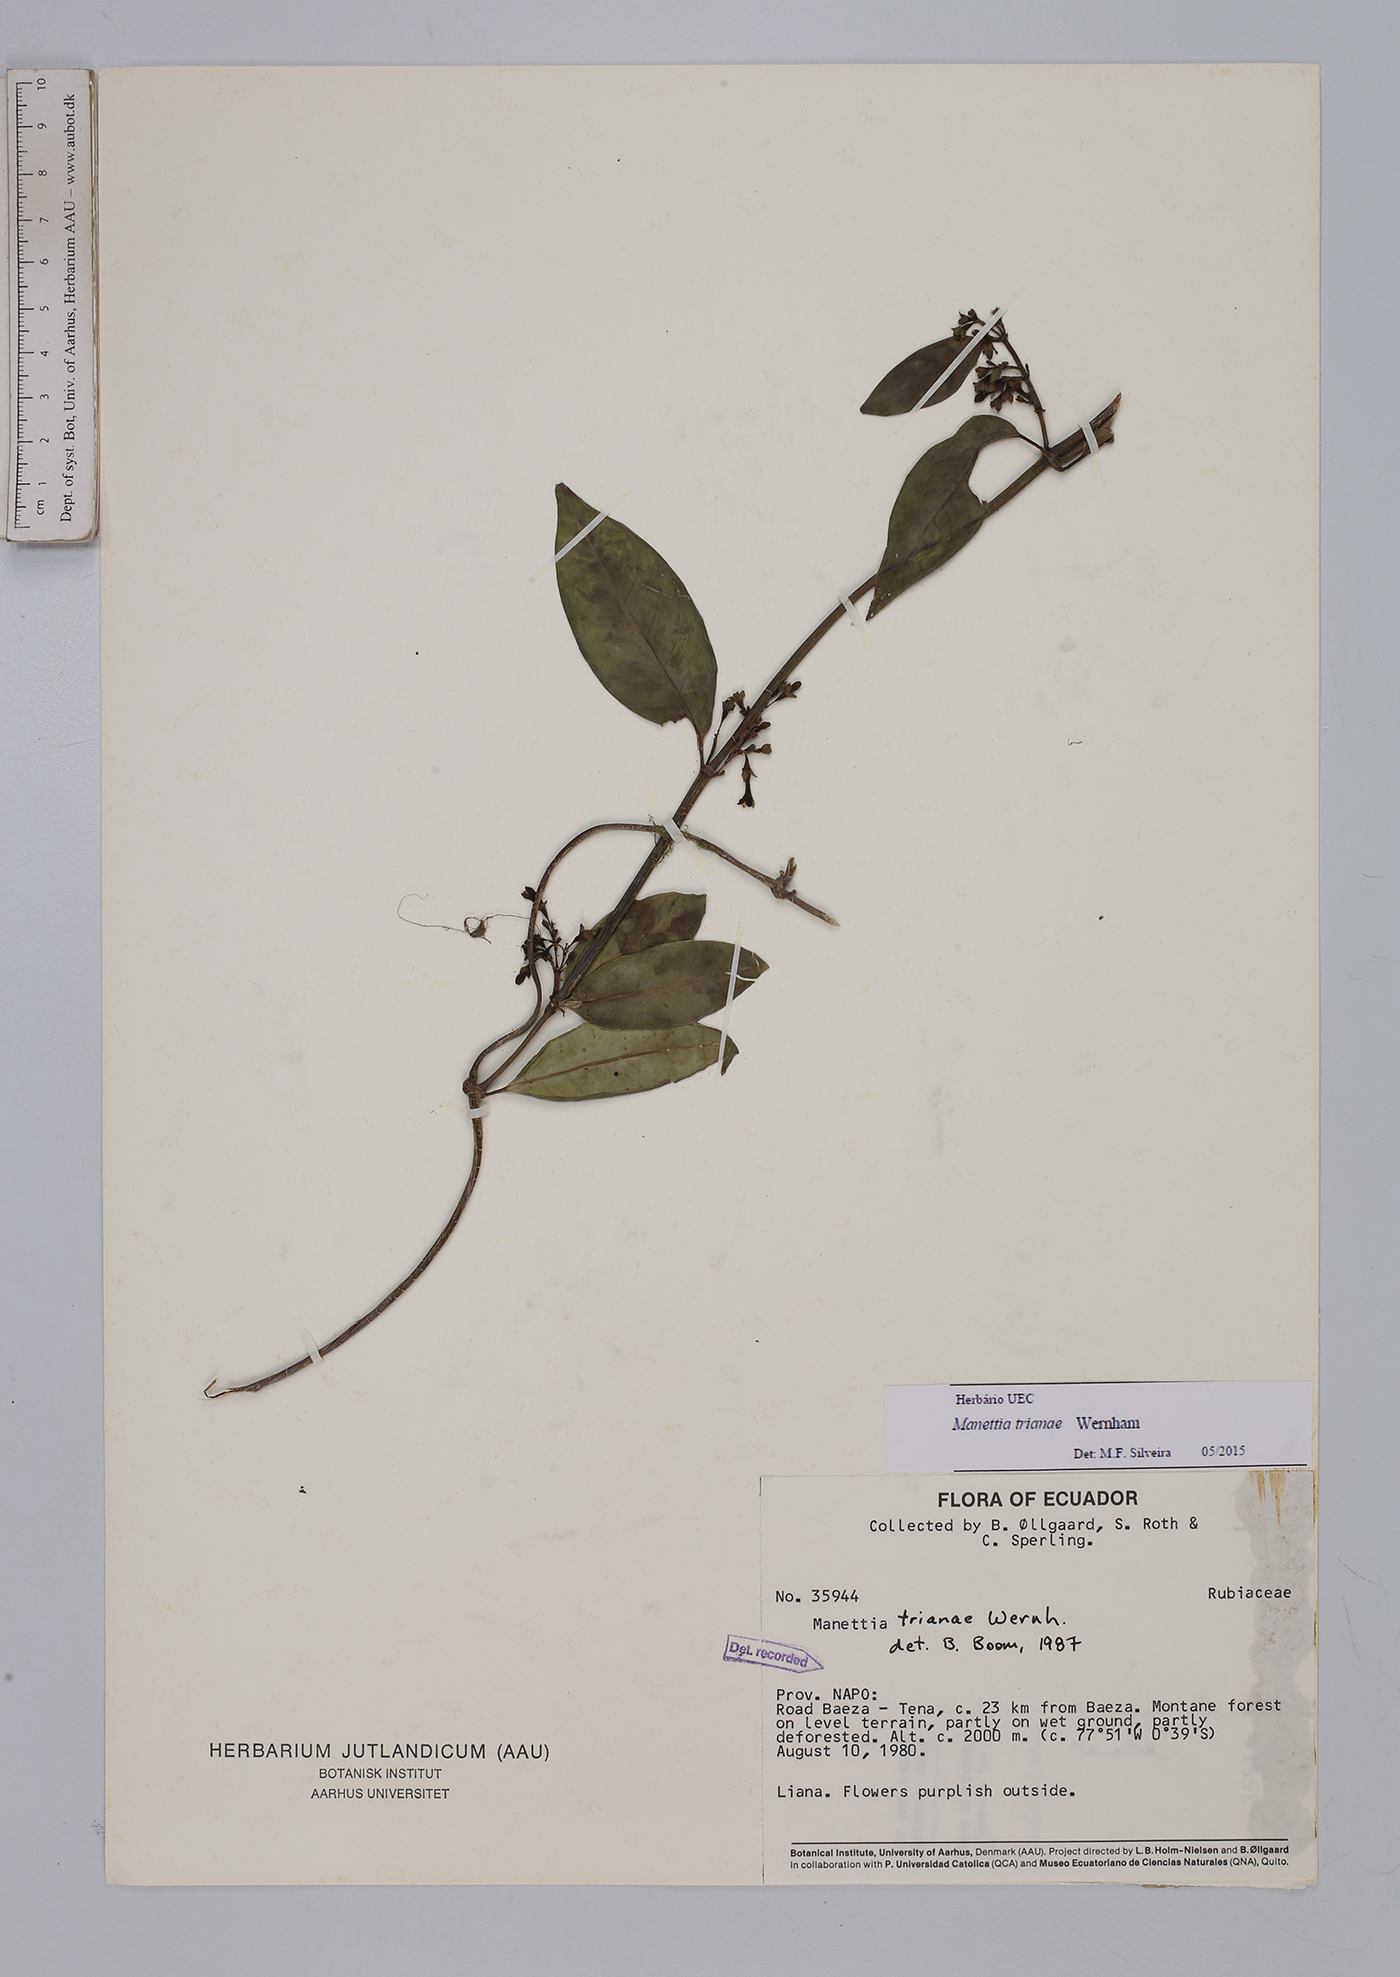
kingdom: Plantae
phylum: Tracheophyta
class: Magnoliopsida
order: Gentianales
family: Rubiaceae
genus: Manettia
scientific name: Manettia trianae
